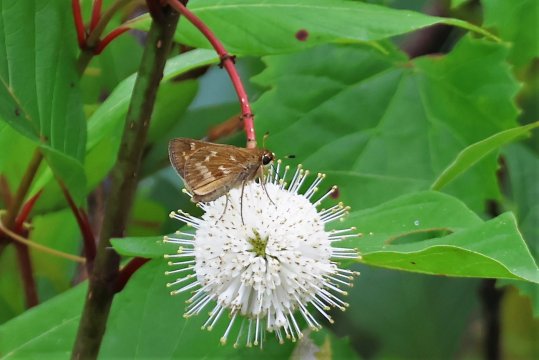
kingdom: Animalia
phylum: Arthropoda
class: Insecta
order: Lepidoptera
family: Hesperiidae
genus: Atalopedes
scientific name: Atalopedes campestris
